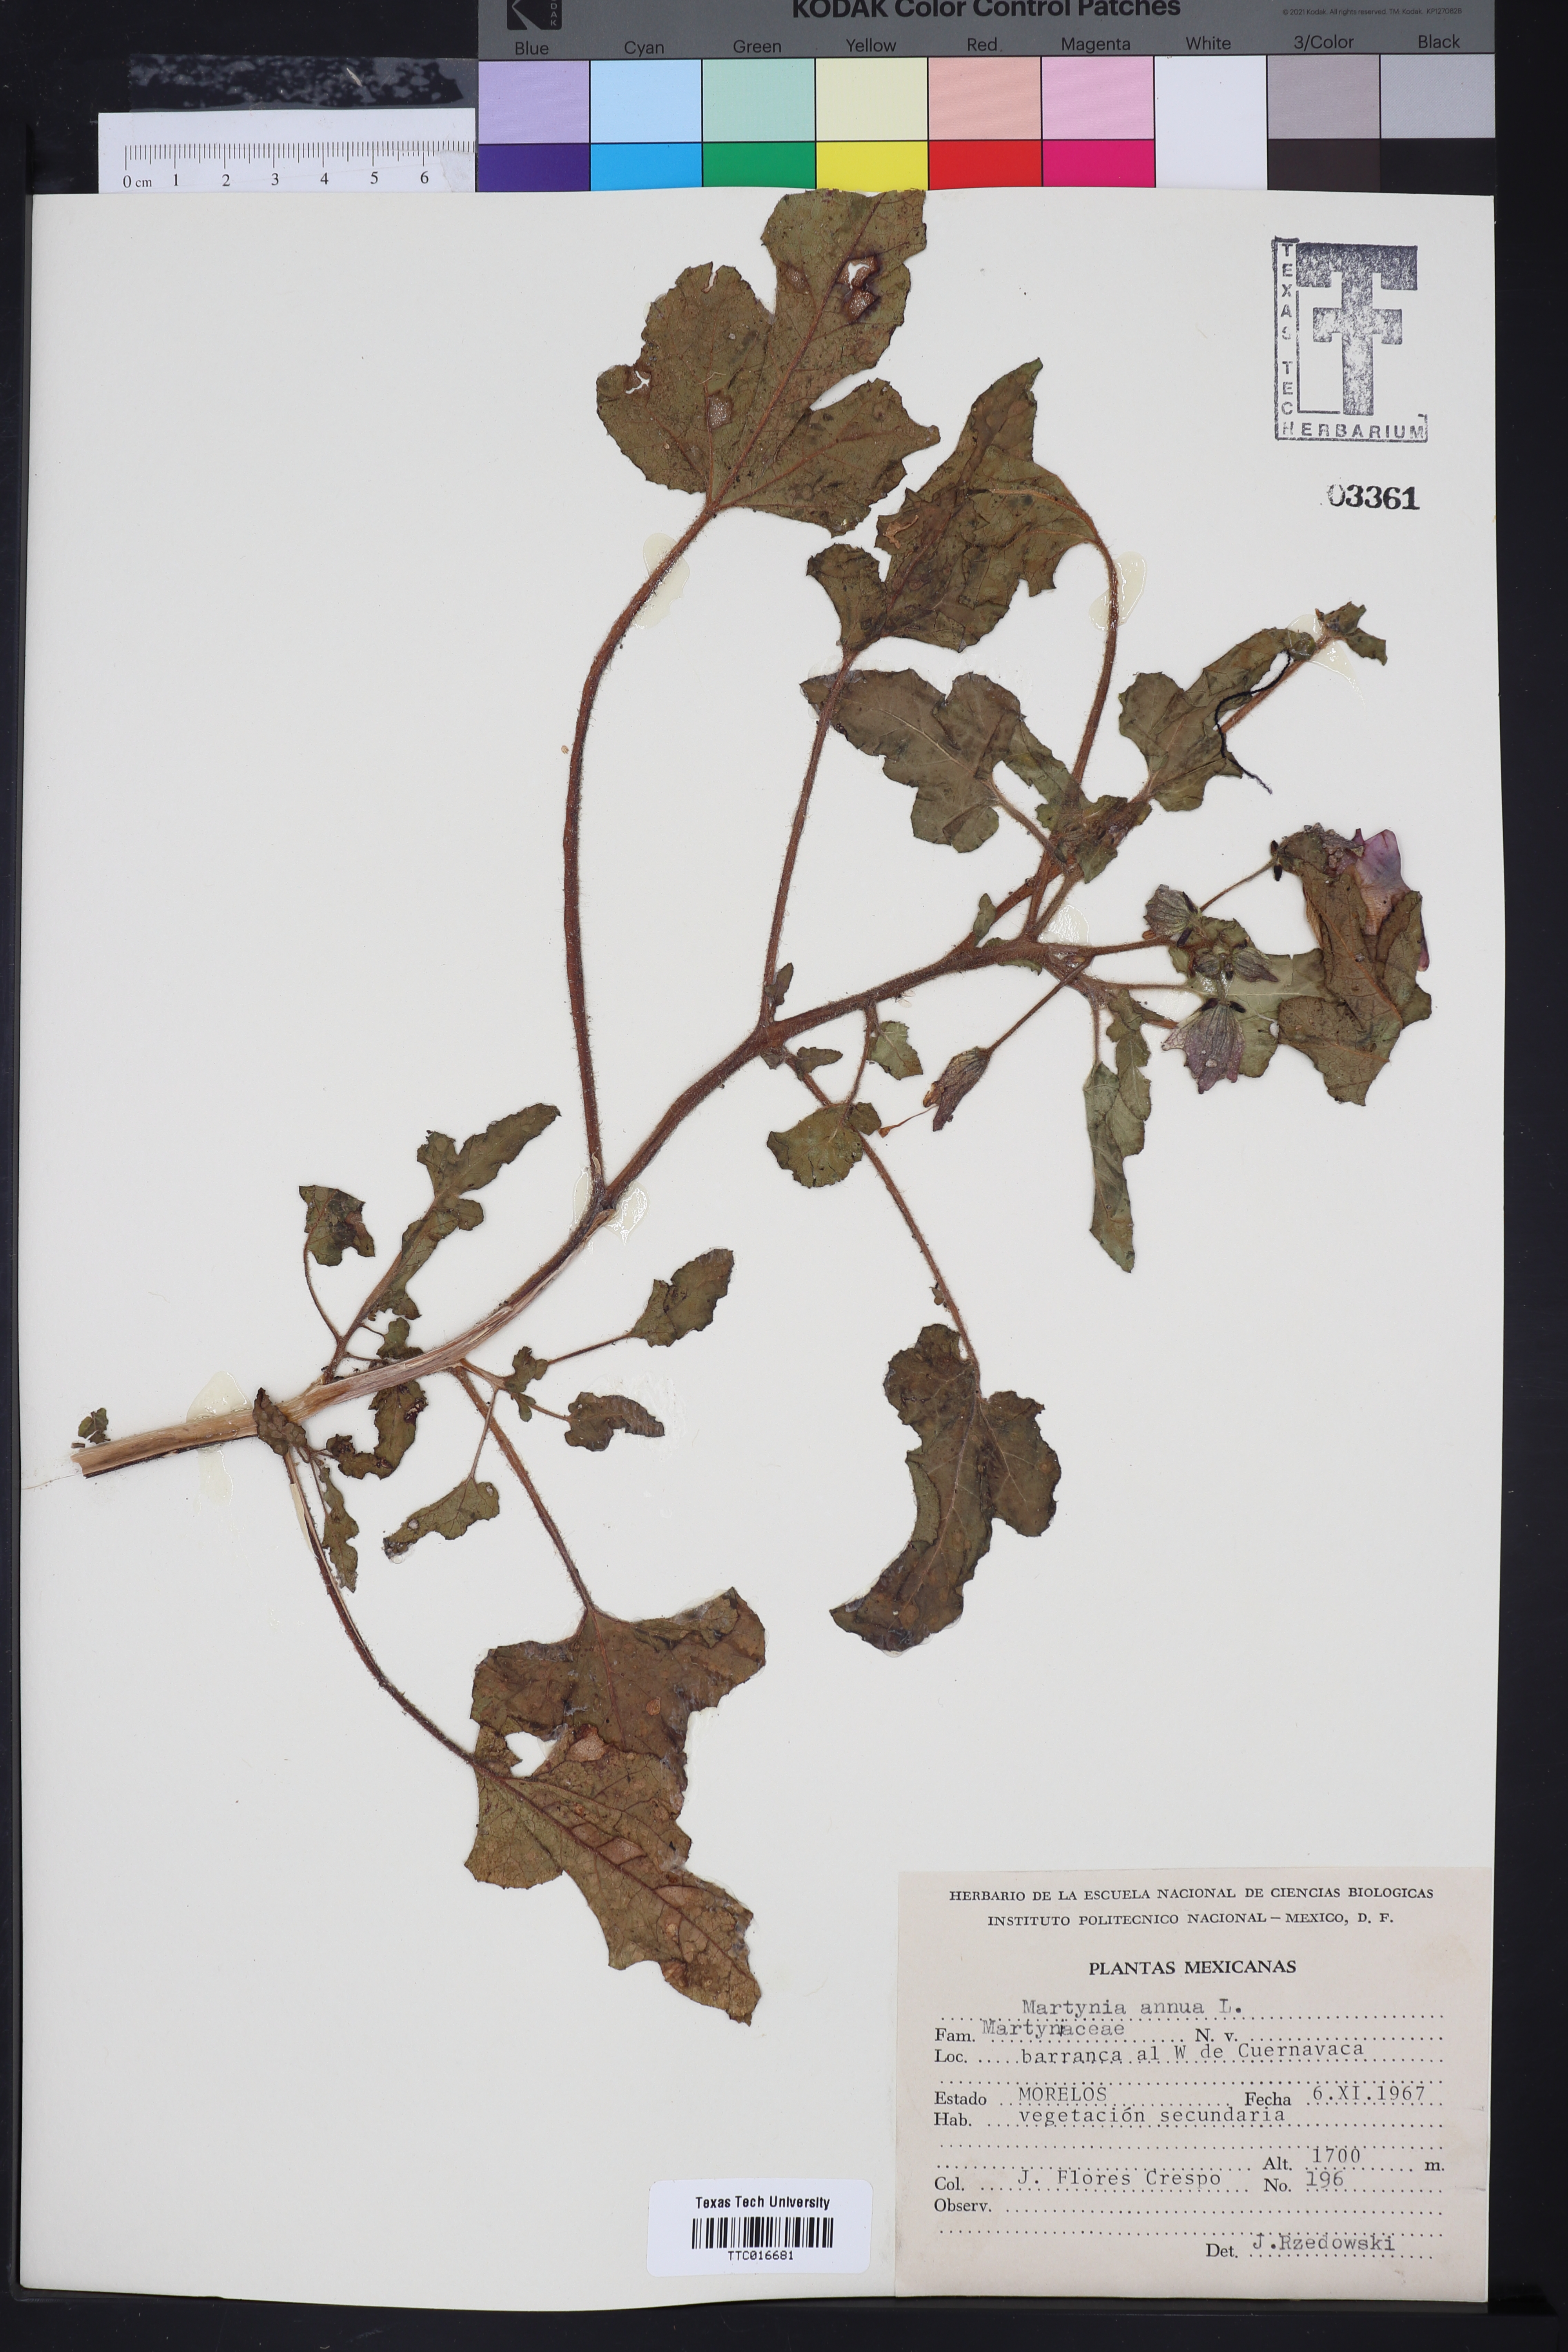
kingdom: Plantae
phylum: Tracheophyta
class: Magnoliopsida
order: Lamiales
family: Martyniaceae
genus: Martynia
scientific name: Martynia annua
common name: Tiger's-claw
